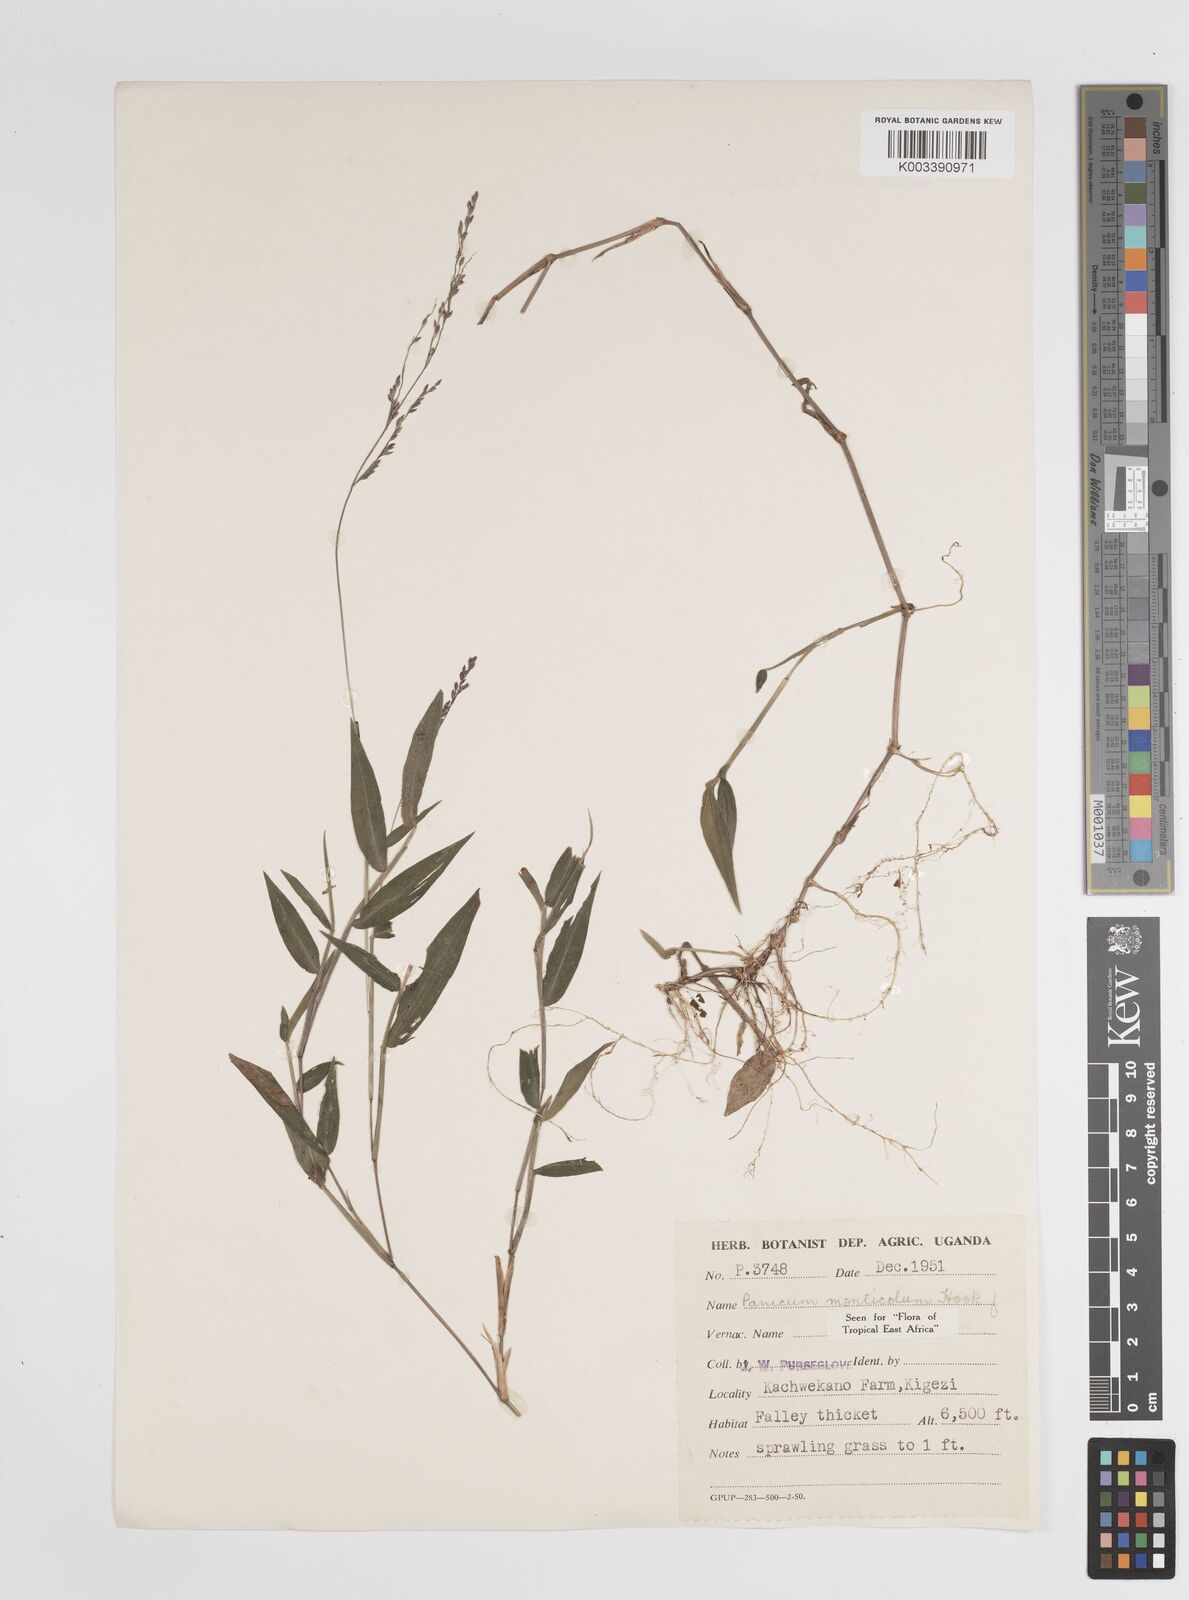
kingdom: Plantae
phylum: Tracheophyta
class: Liliopsida
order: Poales
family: Poaceae
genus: Panicum
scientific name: Panicum
